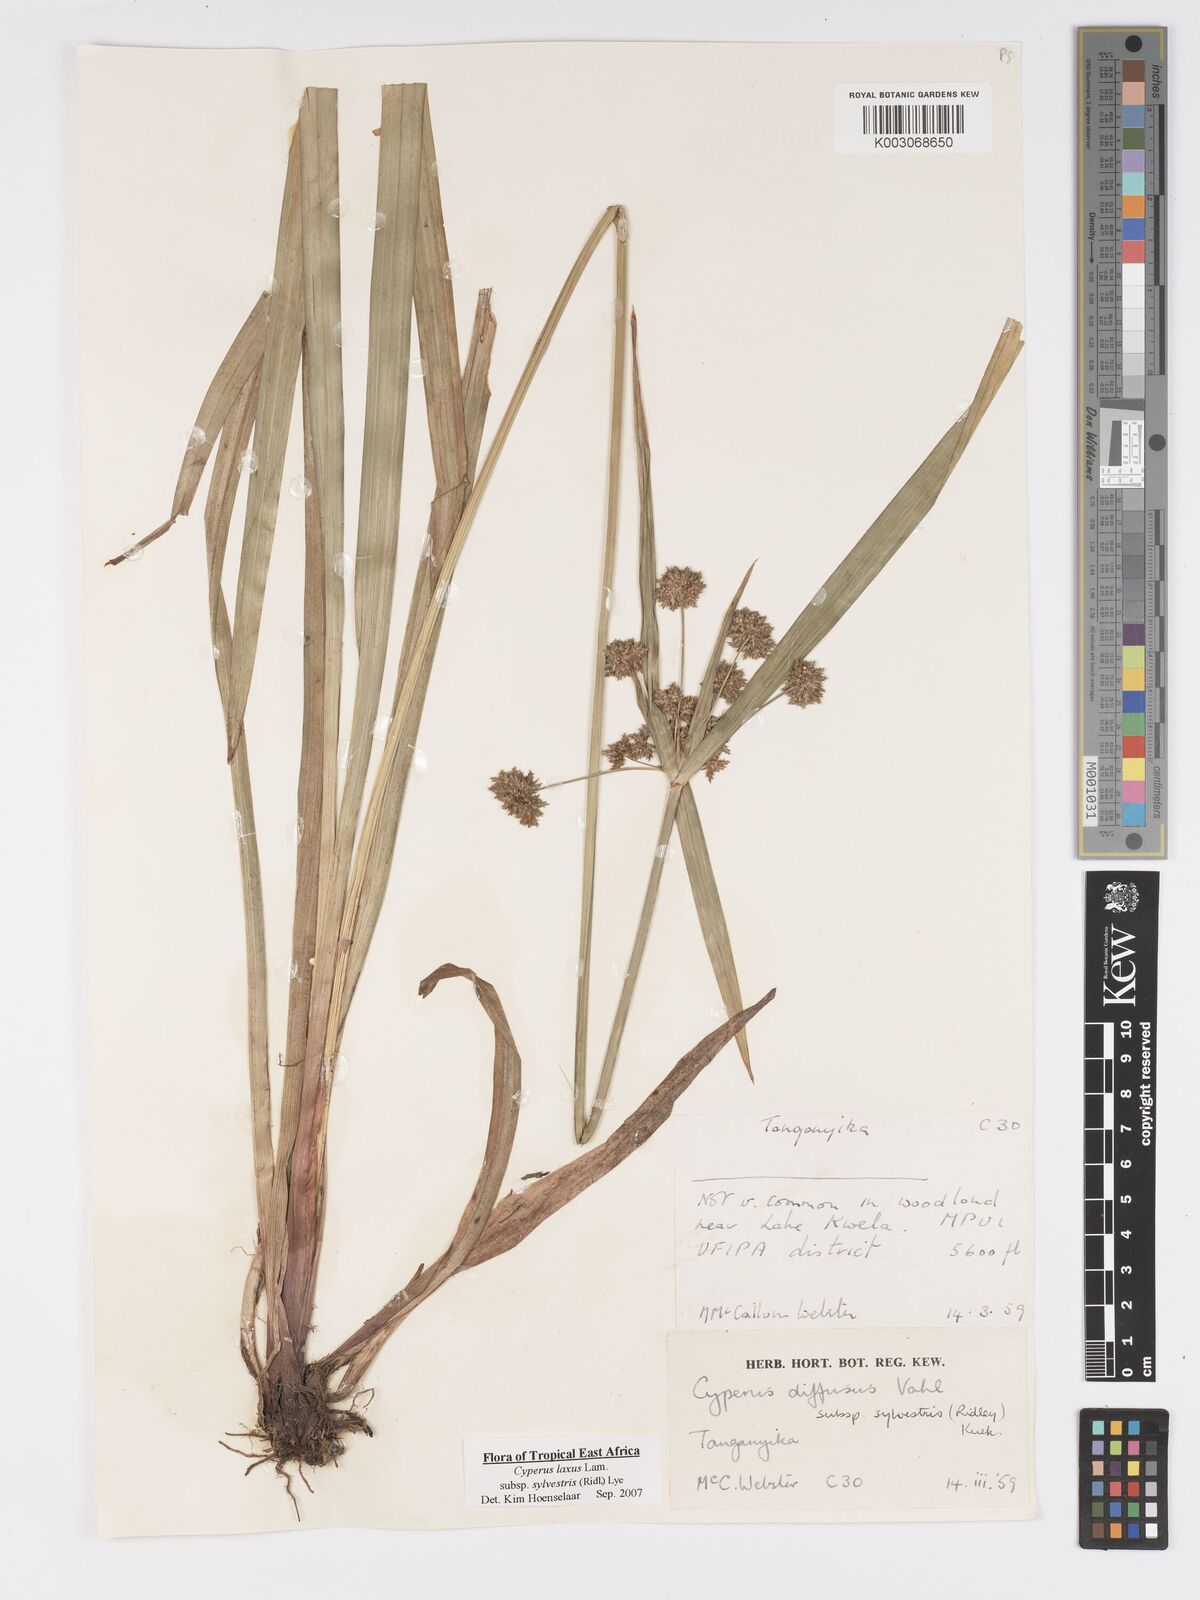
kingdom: Plantae
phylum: Tracheophyta
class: Liliopsida
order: Poales
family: Cyperaceae
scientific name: Cyperaceae
